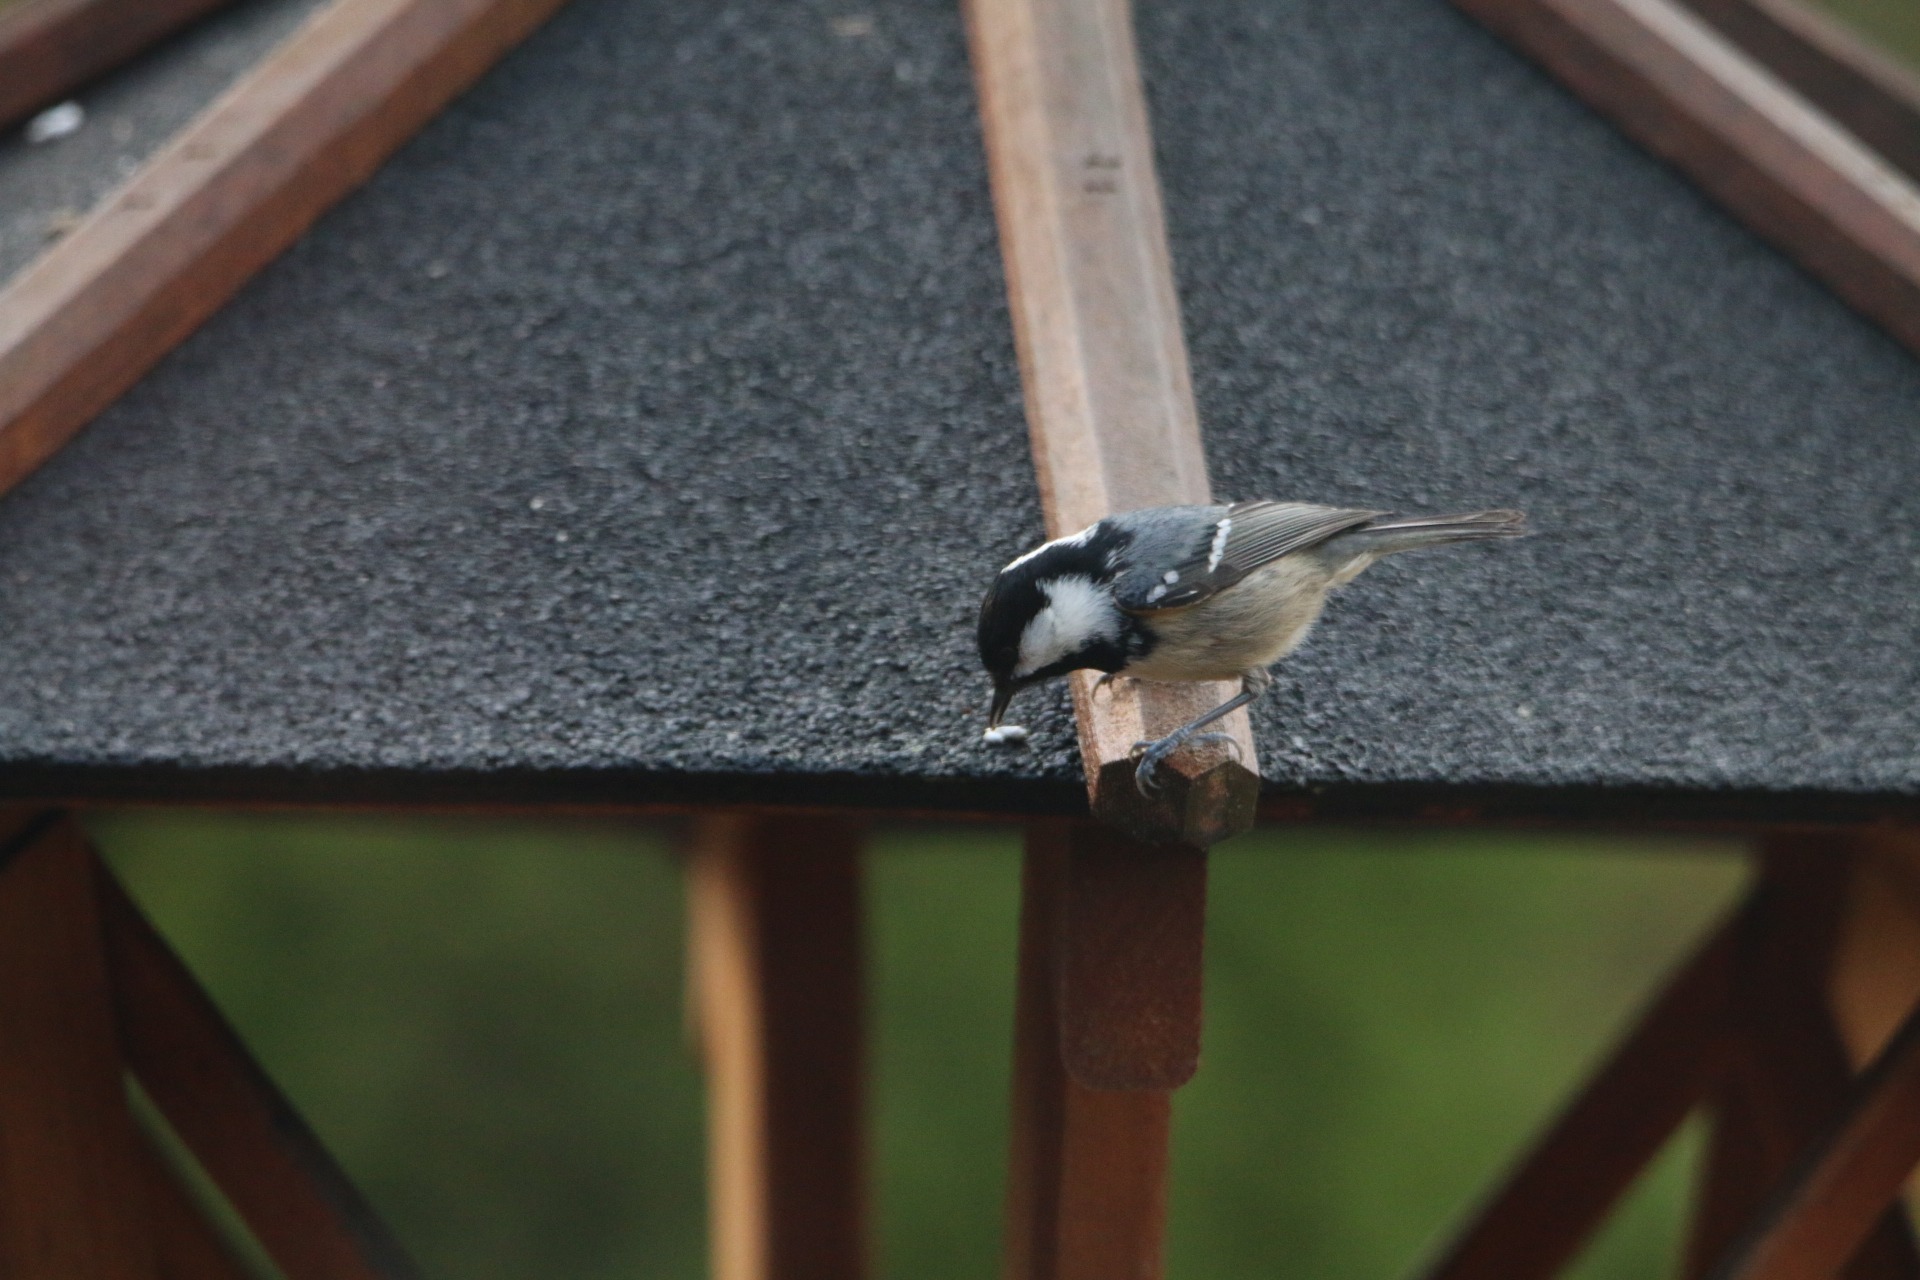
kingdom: Animalia
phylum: Chordata
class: Aves
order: Passeriformes
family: Paridae
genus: Periparus
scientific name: Periparus ater
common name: Sortmejse
